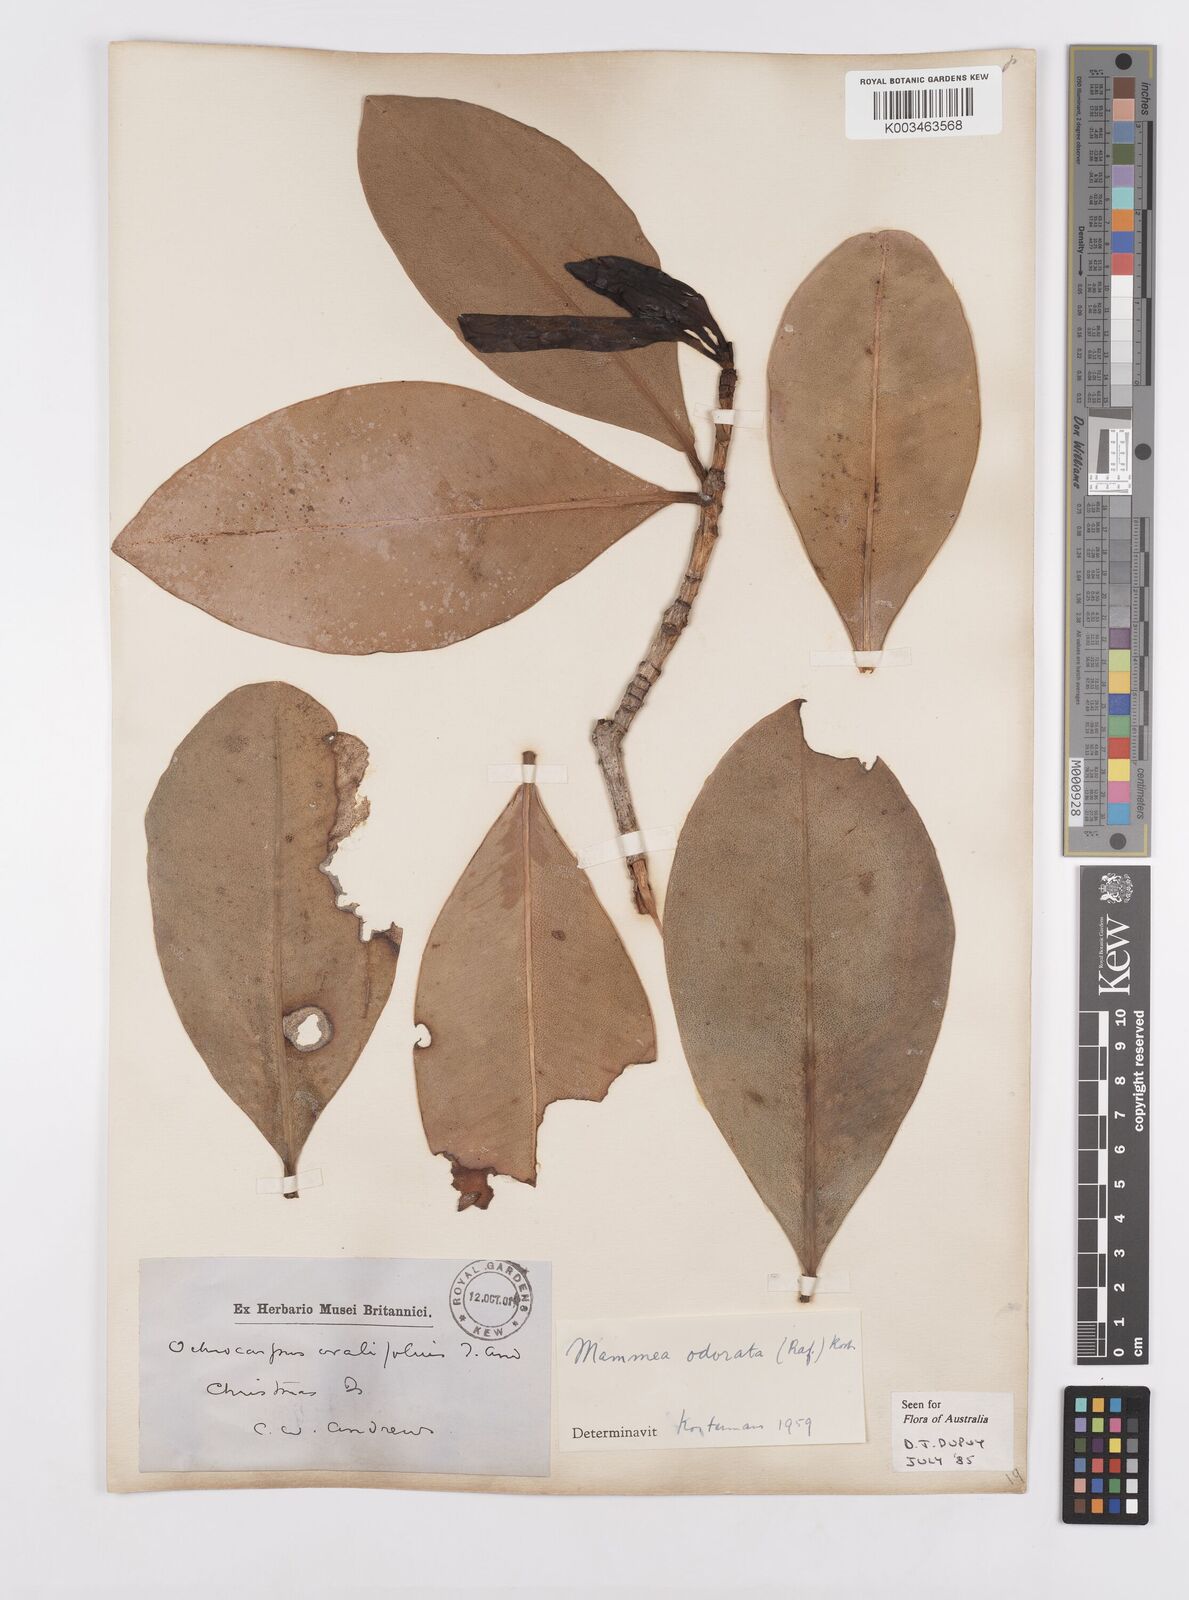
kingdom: Plantae
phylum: Tracheophyta
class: Magnoliopsida
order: Malpighiales
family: Calophyllaceae
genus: Mammea
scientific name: Mammea odorata
